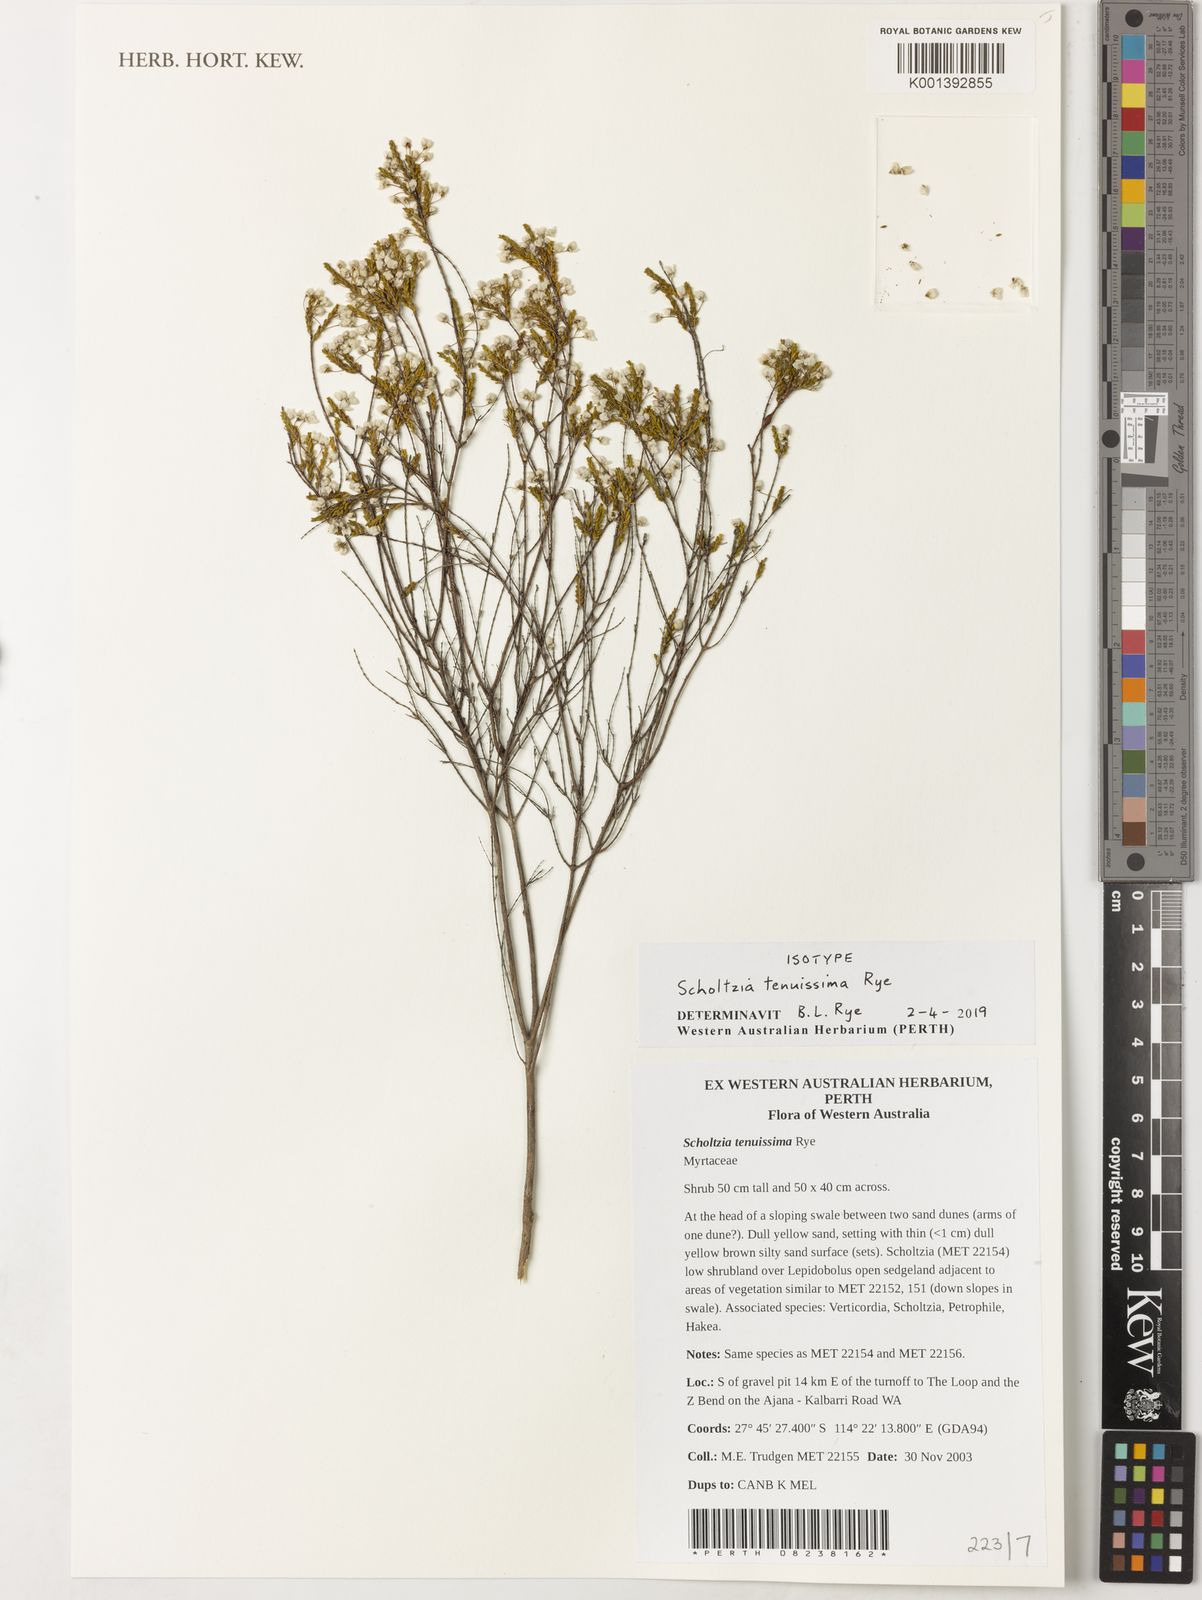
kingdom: Plantae
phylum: Tracheophyta
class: Magnoliopsida
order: Myrtales
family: Myrtaceae
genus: Scholtzia
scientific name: Scholtzia
